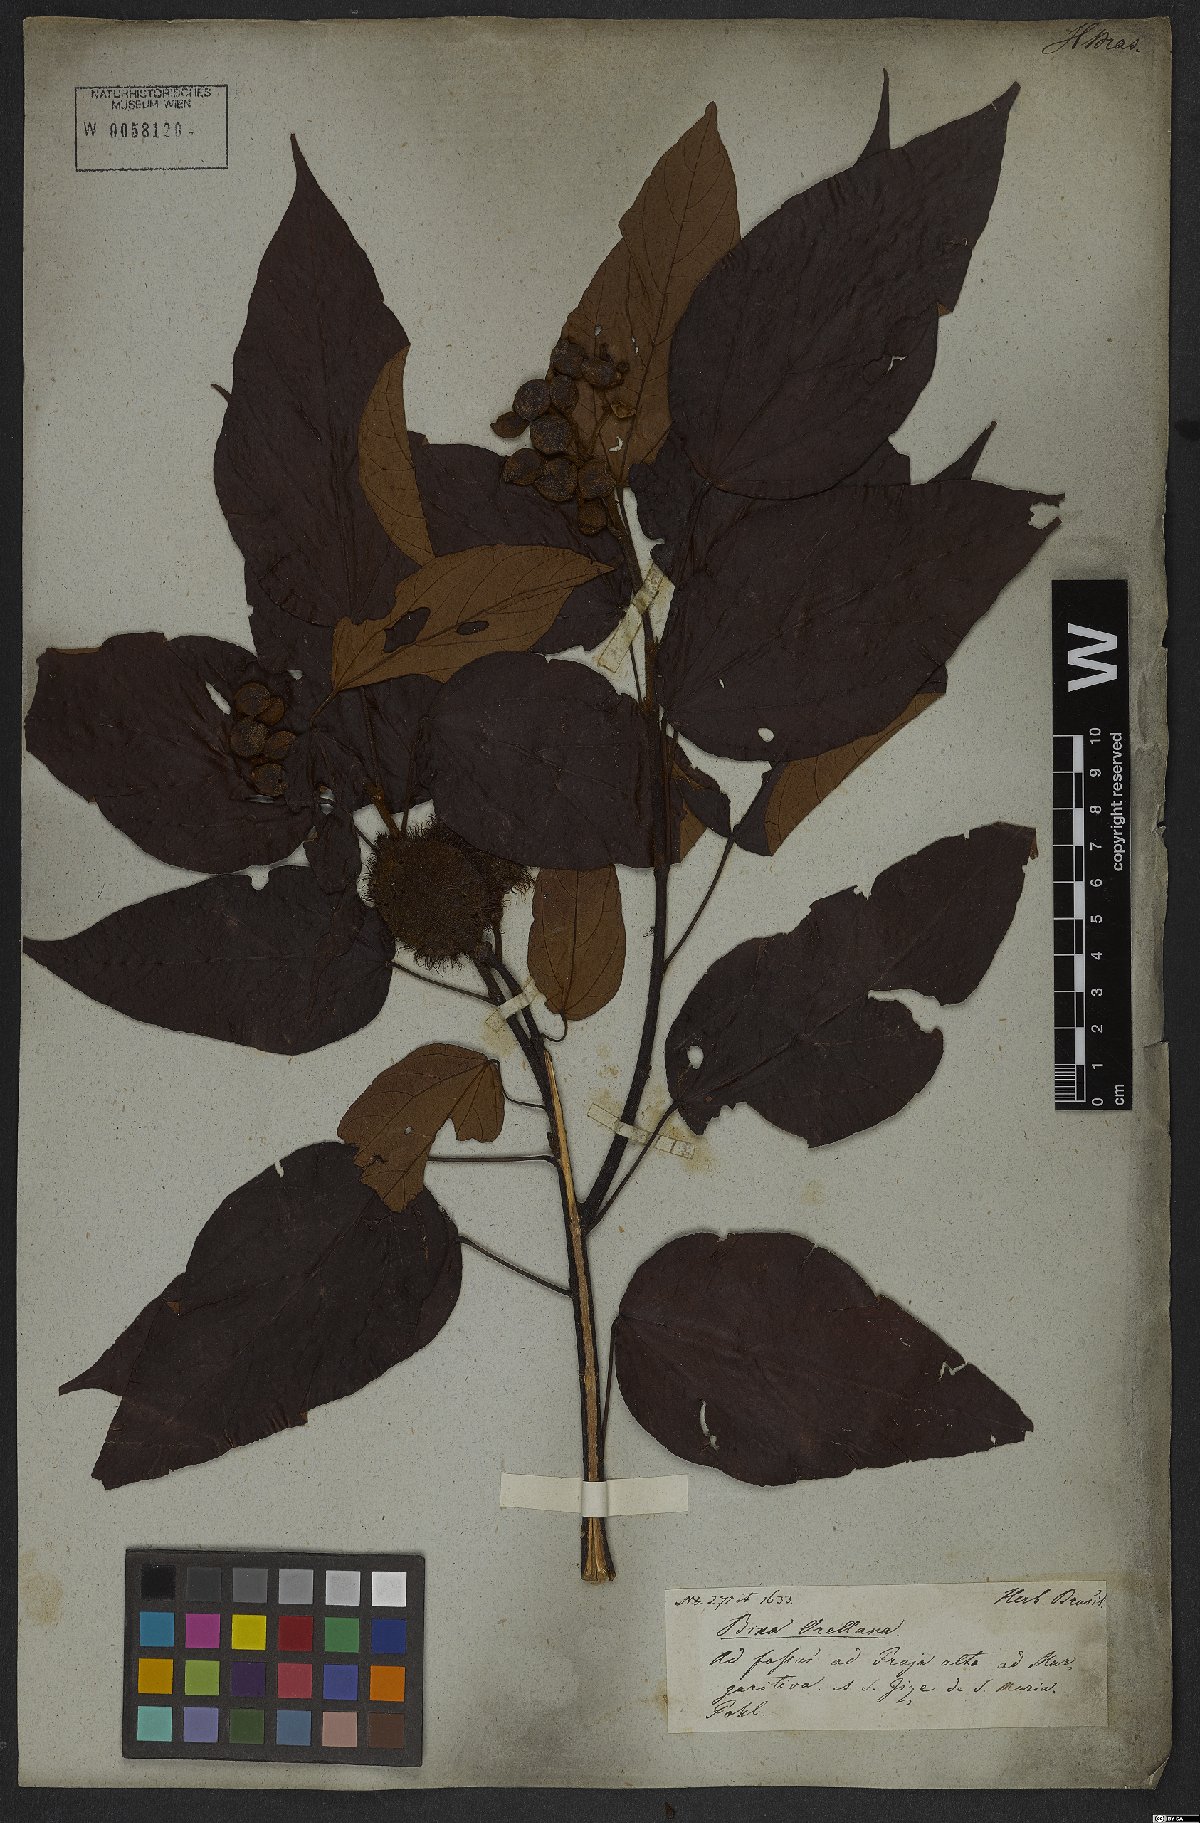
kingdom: Plantae
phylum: Tracheophyta
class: Magnoliopsida
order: Malvales
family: Bixaceae
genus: Bixa
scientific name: Bixa orellana
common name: Lipsticktree
